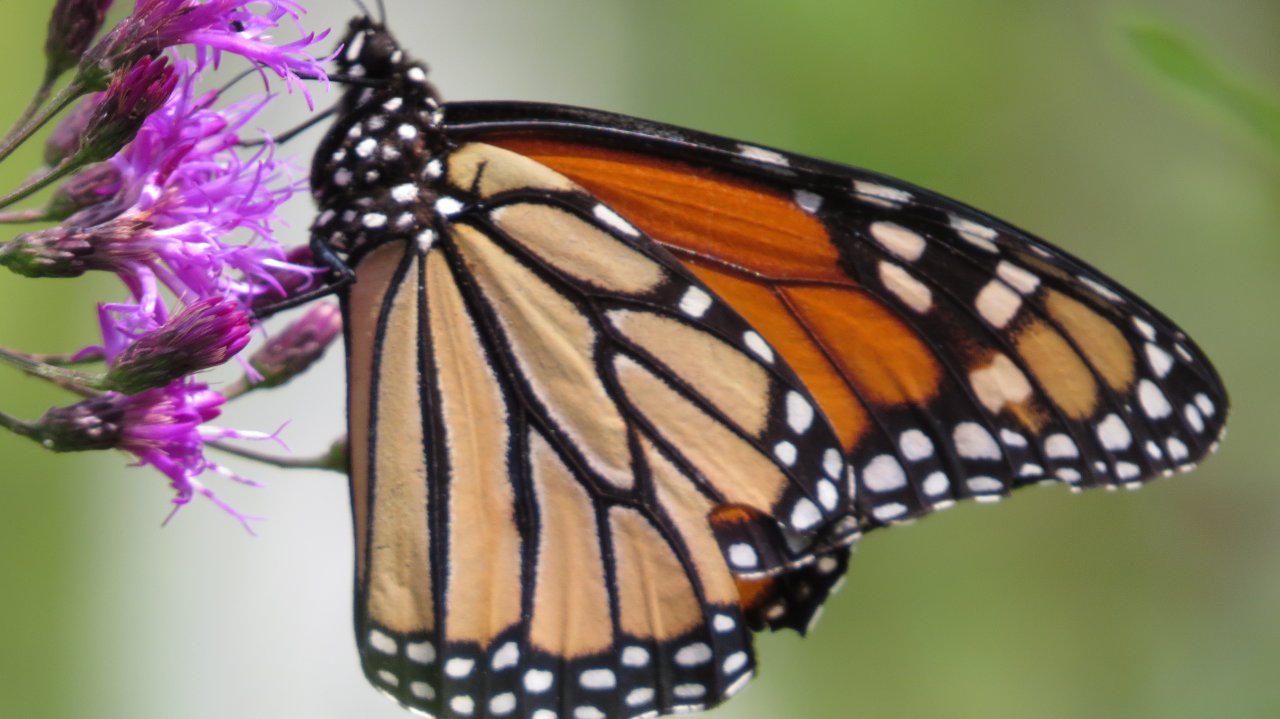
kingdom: Animalia
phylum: Arthropoda
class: Insecta
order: Lepidoptera
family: Nymphalidae
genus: Danaus
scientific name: Danaus plexippus
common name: Monarch
